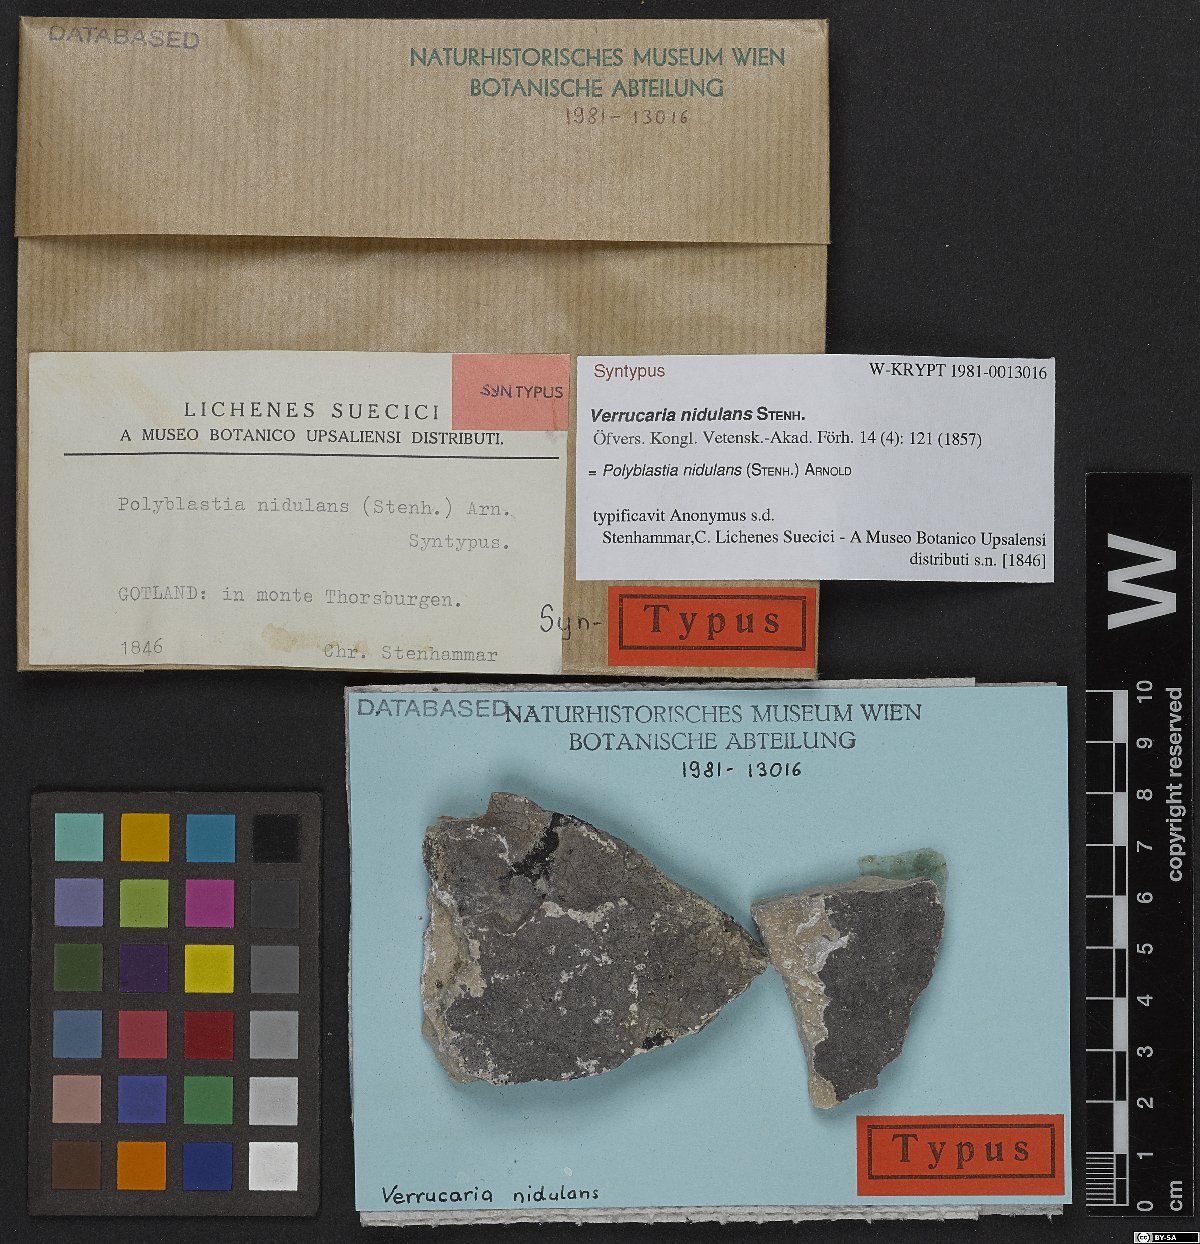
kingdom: Fungi
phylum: Ascomycota
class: Eurotiomycetes
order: Verrucariales
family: Verrucariaceae
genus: Polyblastia
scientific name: Polyblastia nidulans
